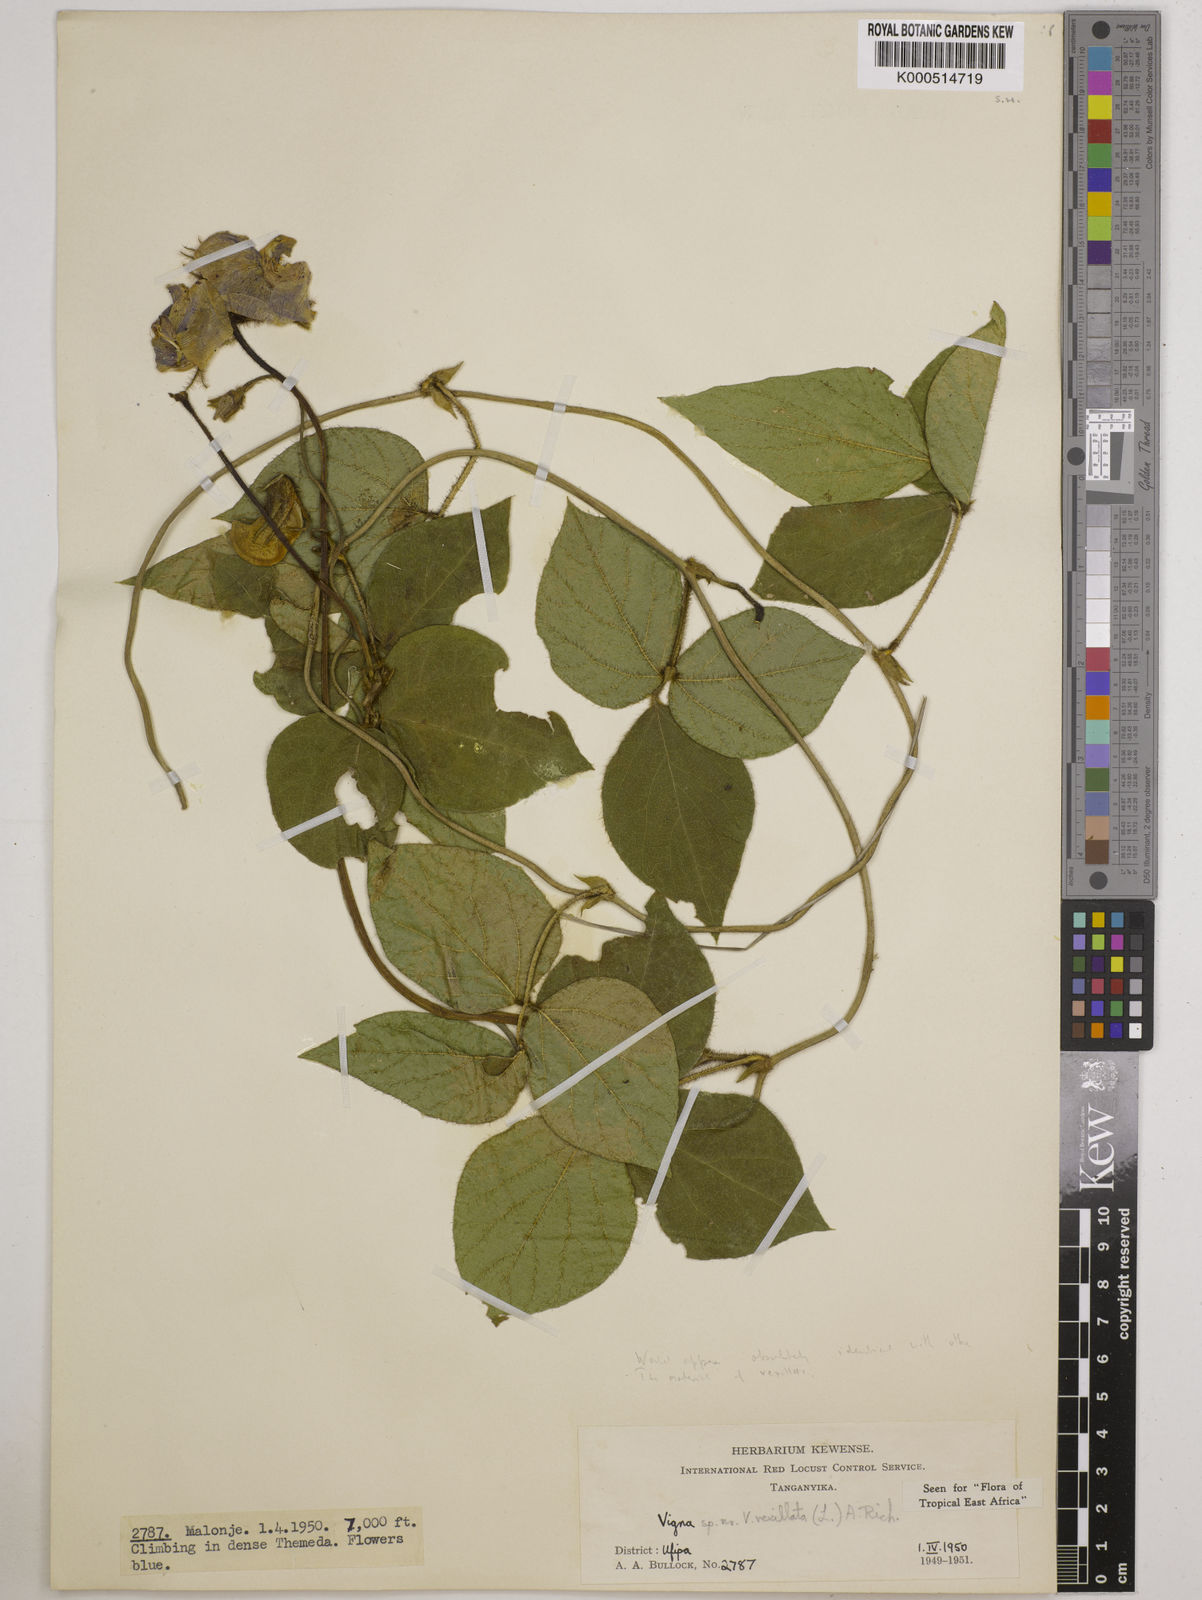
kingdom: Plantae
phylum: Tracheophyta
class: Magnoliopsida
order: Fabales
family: Fabaceae
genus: Vigna
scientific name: Vigna vexillata
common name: Zombi pea
